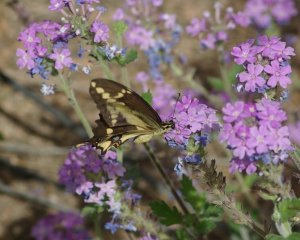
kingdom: Animalia
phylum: Arthropoda
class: Insecta
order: Lepidoptera
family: Papilionidae
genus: Papilio
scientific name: Papilio rumiko
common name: Western Giant Swallowtail
